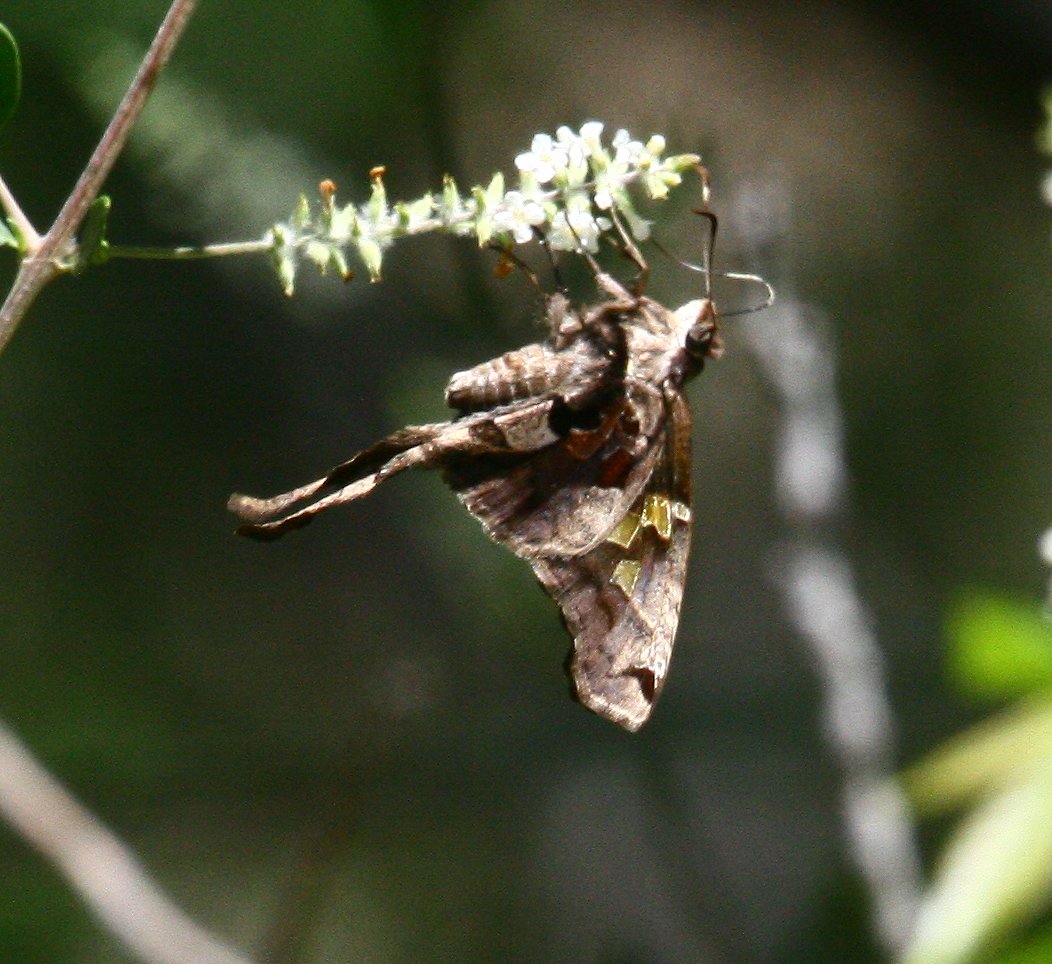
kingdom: Animalia
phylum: Arthropoda
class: Insecta
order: Lepidoptera
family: Hesperiidae
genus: Chioides
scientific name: Chioides zilpa
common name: Zilpa Longtail
